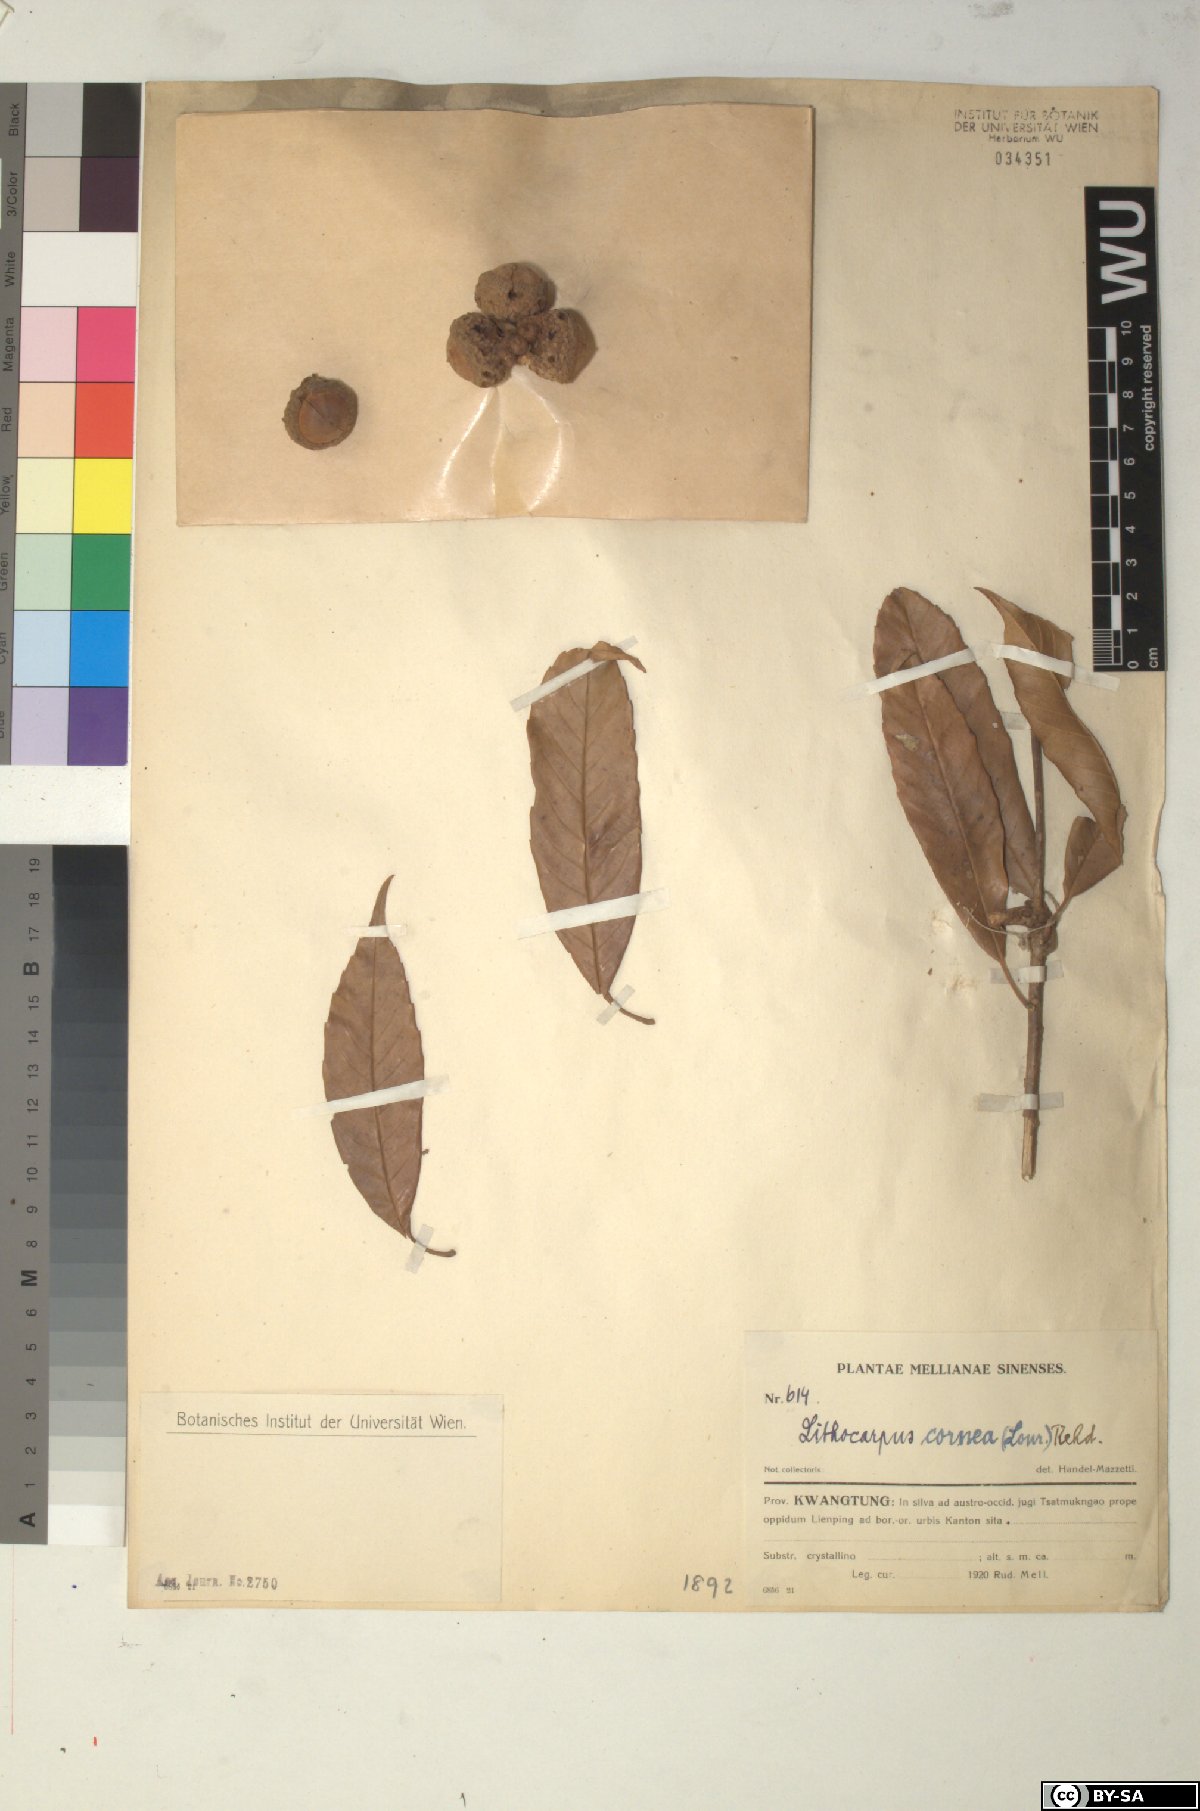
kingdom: Plantae
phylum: Tracheophyta
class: Magnoliopsida
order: Fagales
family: Fagaceae
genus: Lithocarpus
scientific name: Lithocarpus corneus
